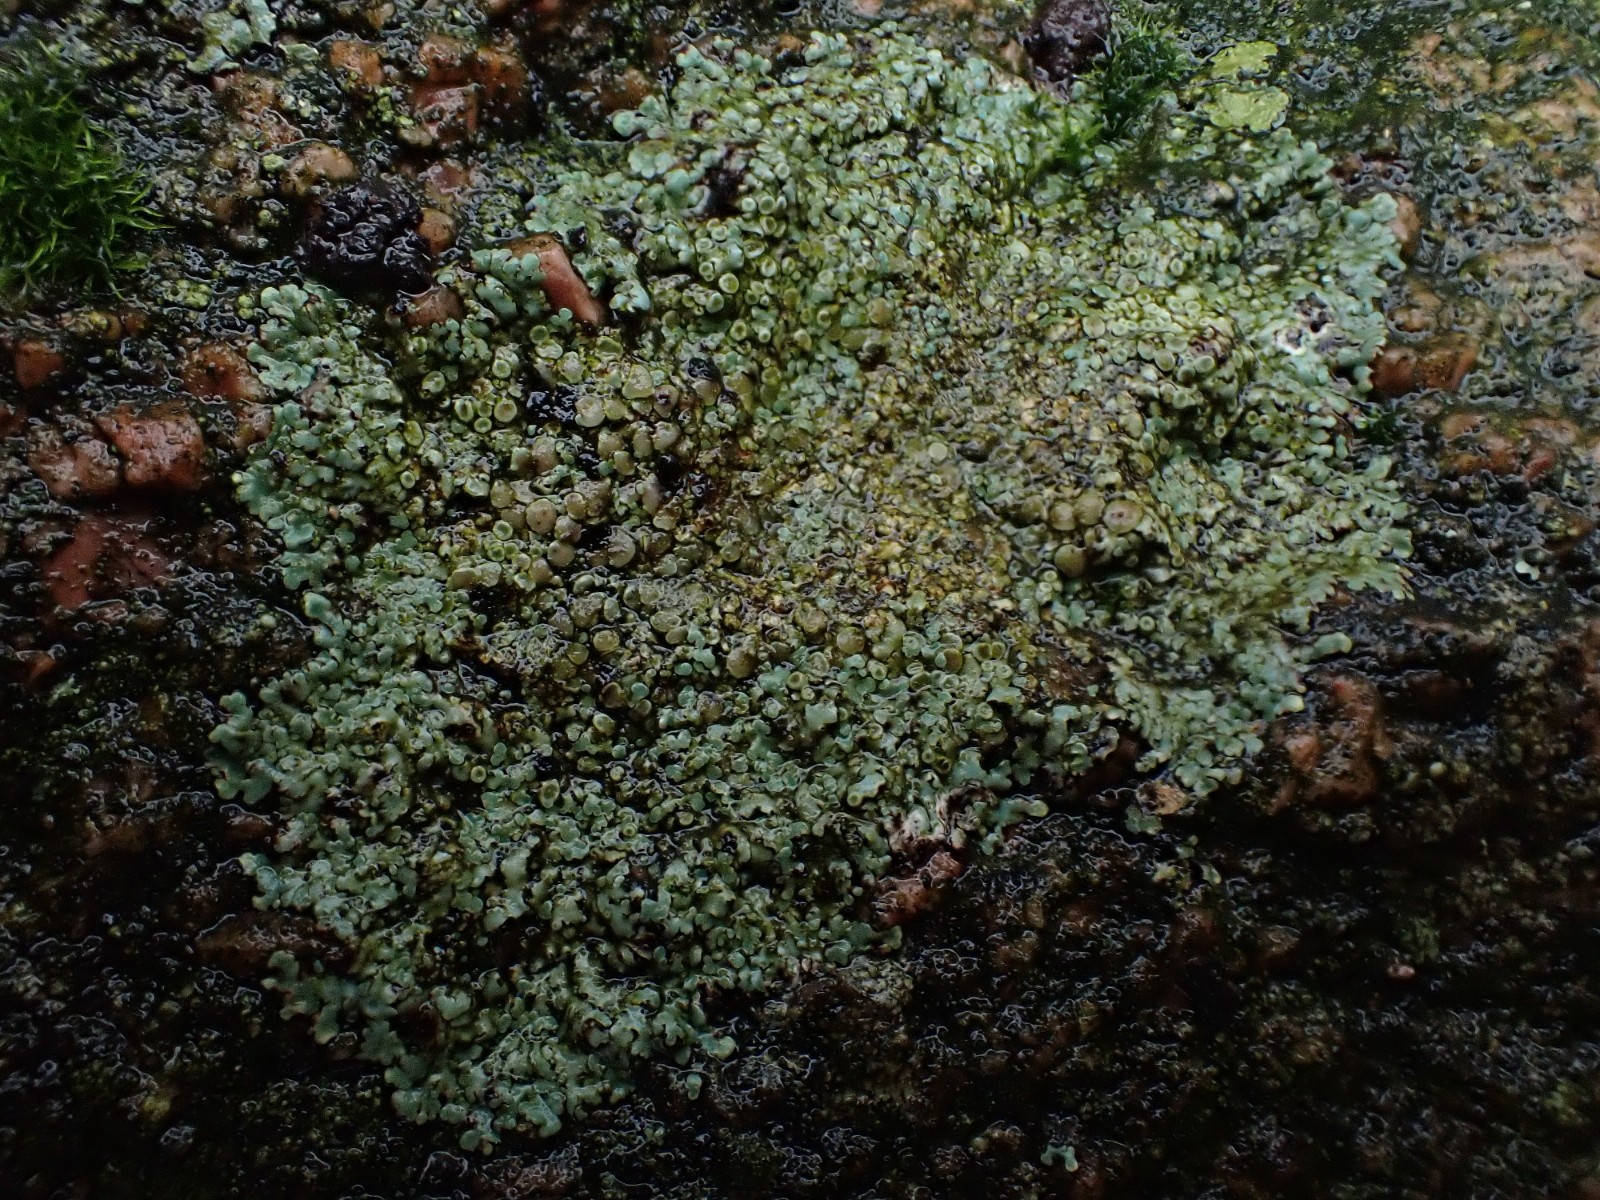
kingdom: Fungi
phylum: Ascomycota
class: Lecanoromycetes
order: Lecanorales
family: Lecanoraceae
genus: Protoparmeliopsis
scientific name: Protoparmeliopsis muralis
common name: randfliget kantskivelav
